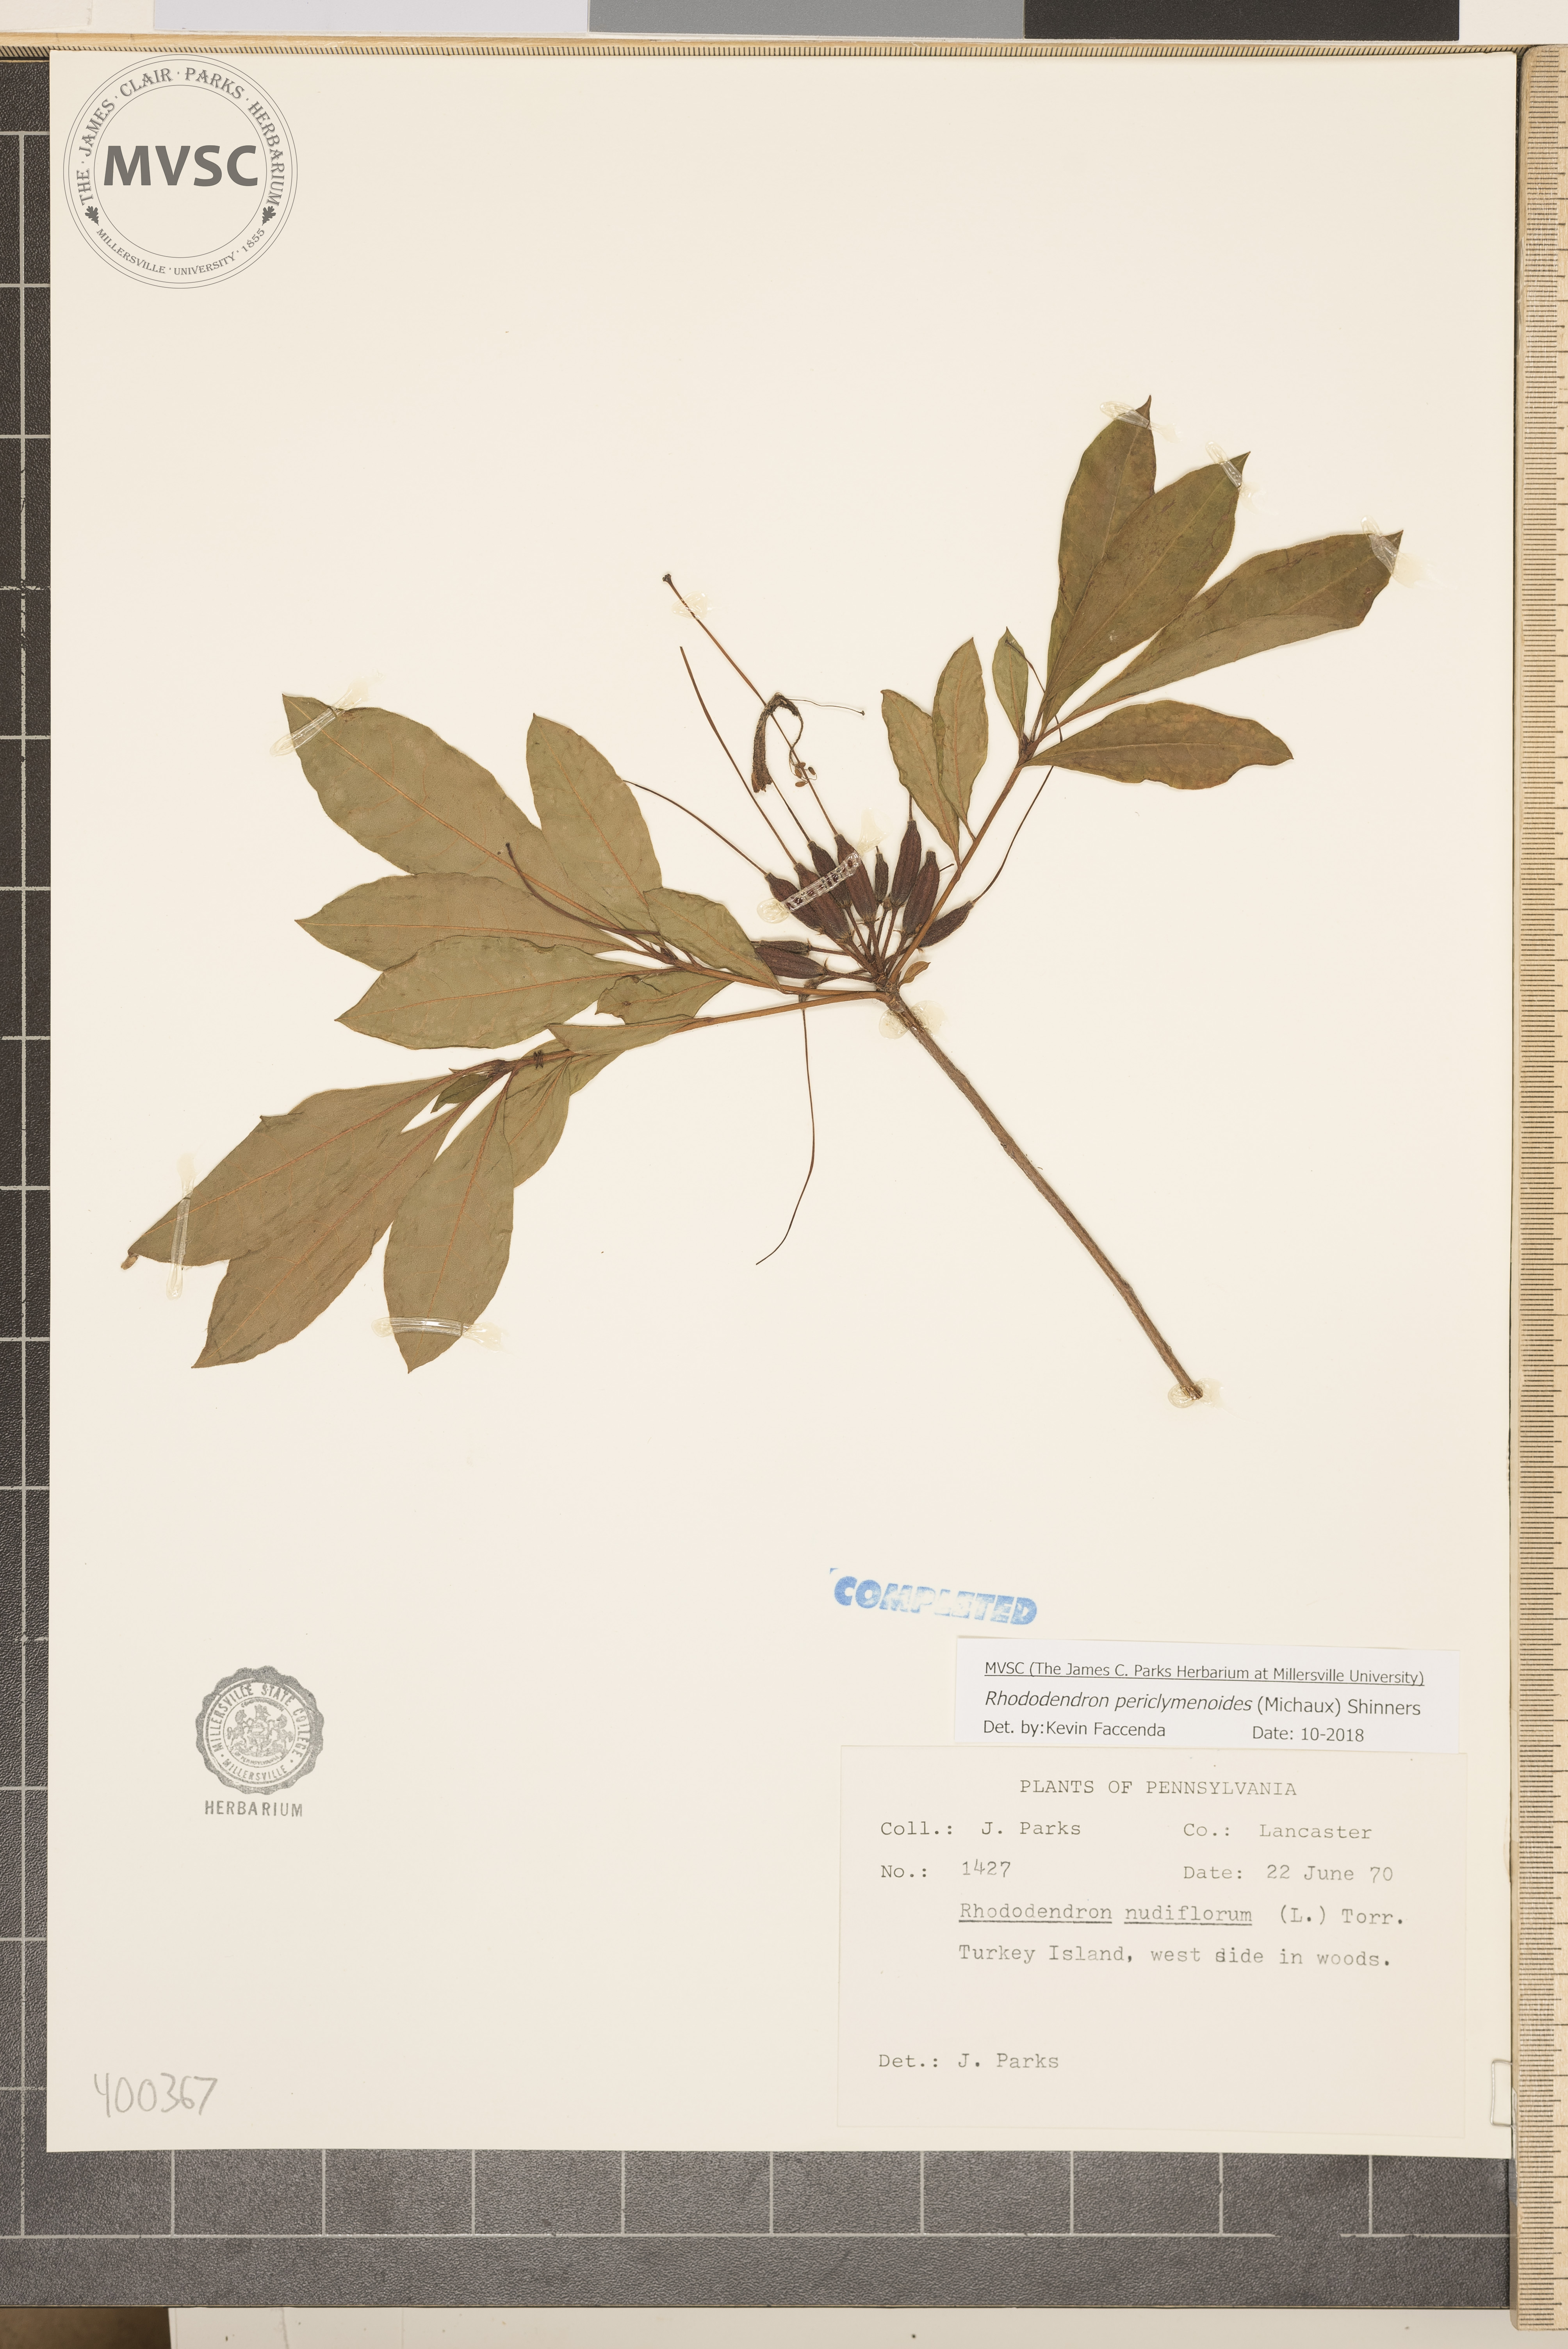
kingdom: Plantae
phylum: Tracheophyta
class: Magnoliopsida
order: Ericales
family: Ericaceae
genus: Rhododendron
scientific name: Rhododendron periclymenoides
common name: Election-pink
